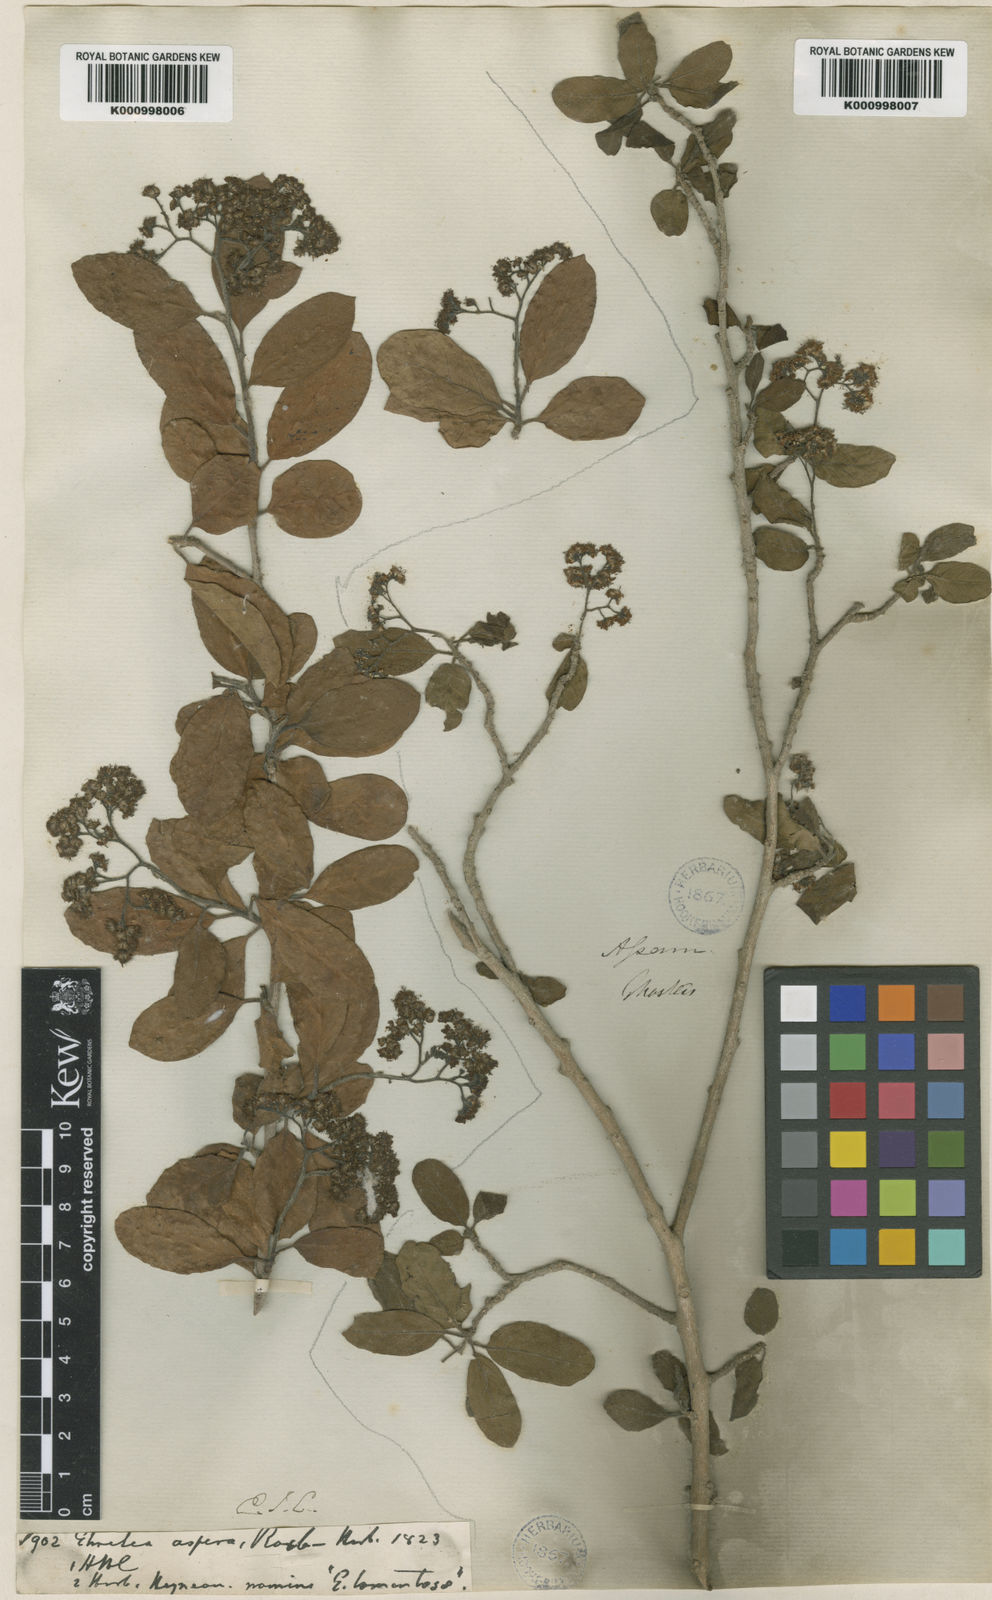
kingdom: Plantae
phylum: Tracheophyta
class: Magnoliopsida
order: Boraginales
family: Ehretiaceae
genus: Ehretia
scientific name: Ehretia
